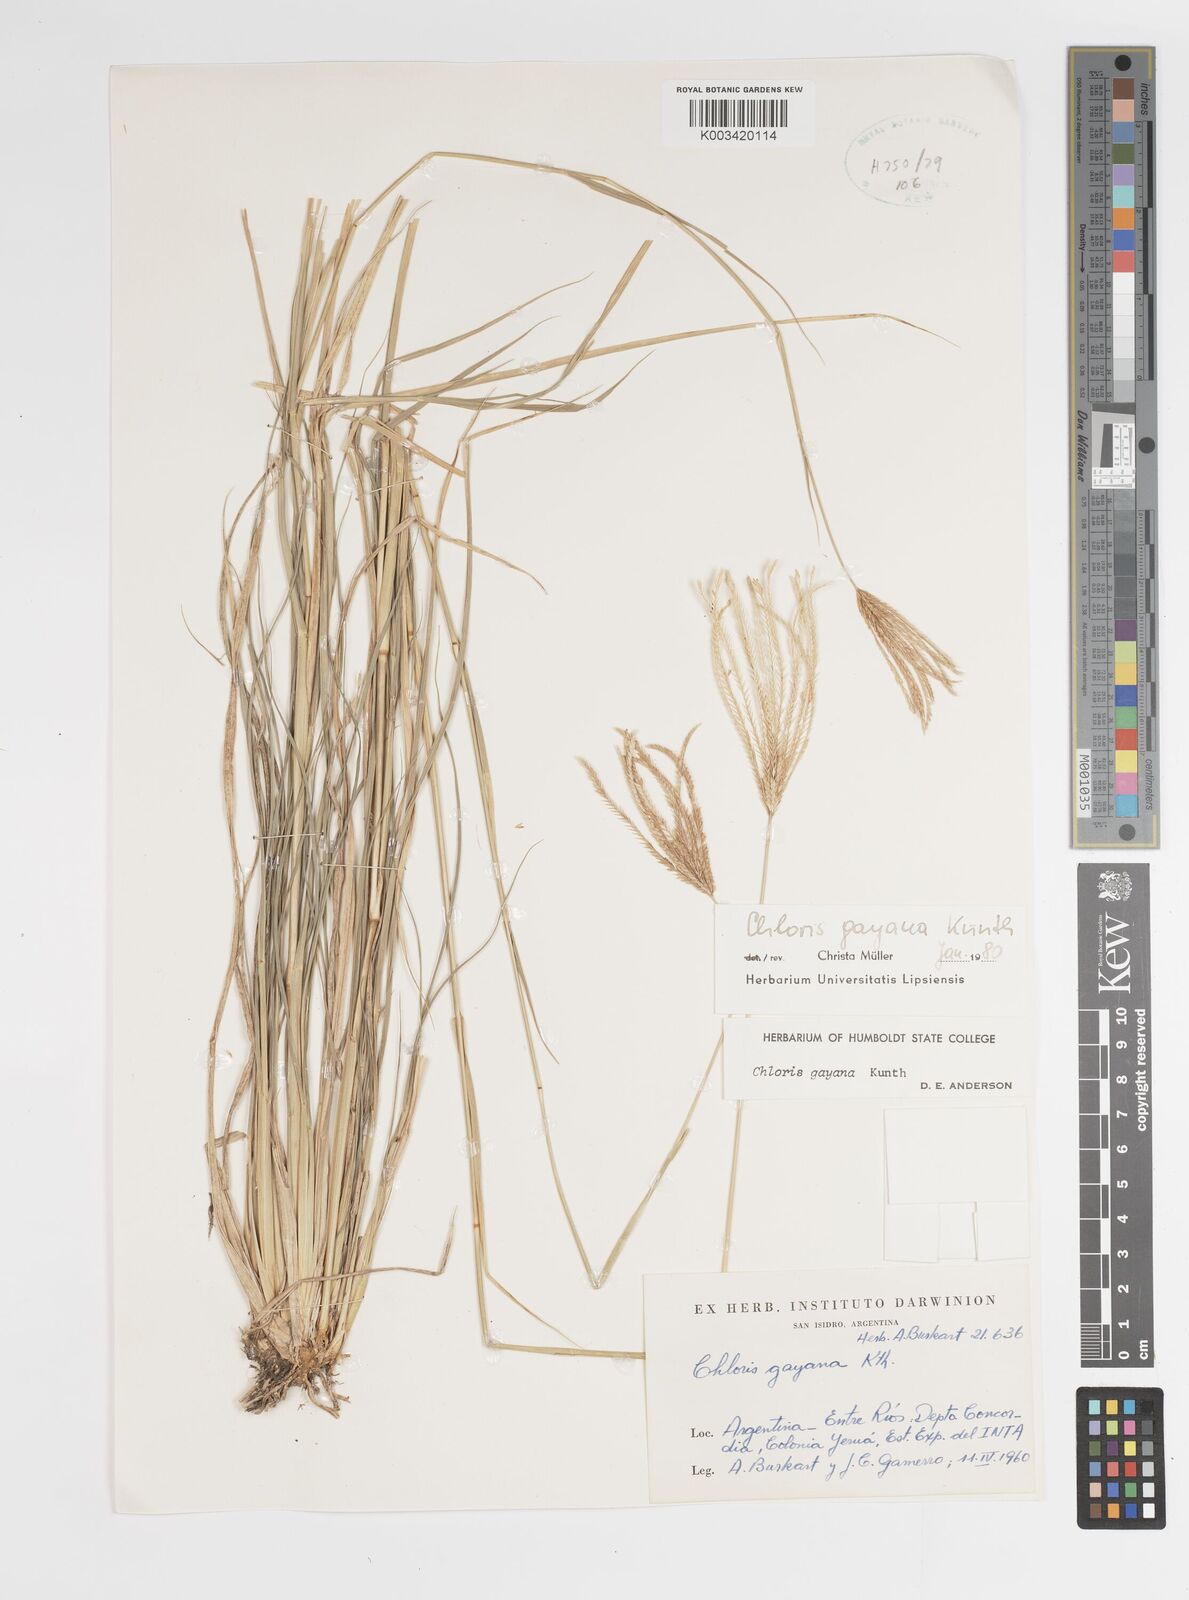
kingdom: Plantae
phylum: Tracheophyta
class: Liliopsida
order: Poales
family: Poaceae
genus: Chloris
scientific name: Chloris gayana
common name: Rhodes grass
